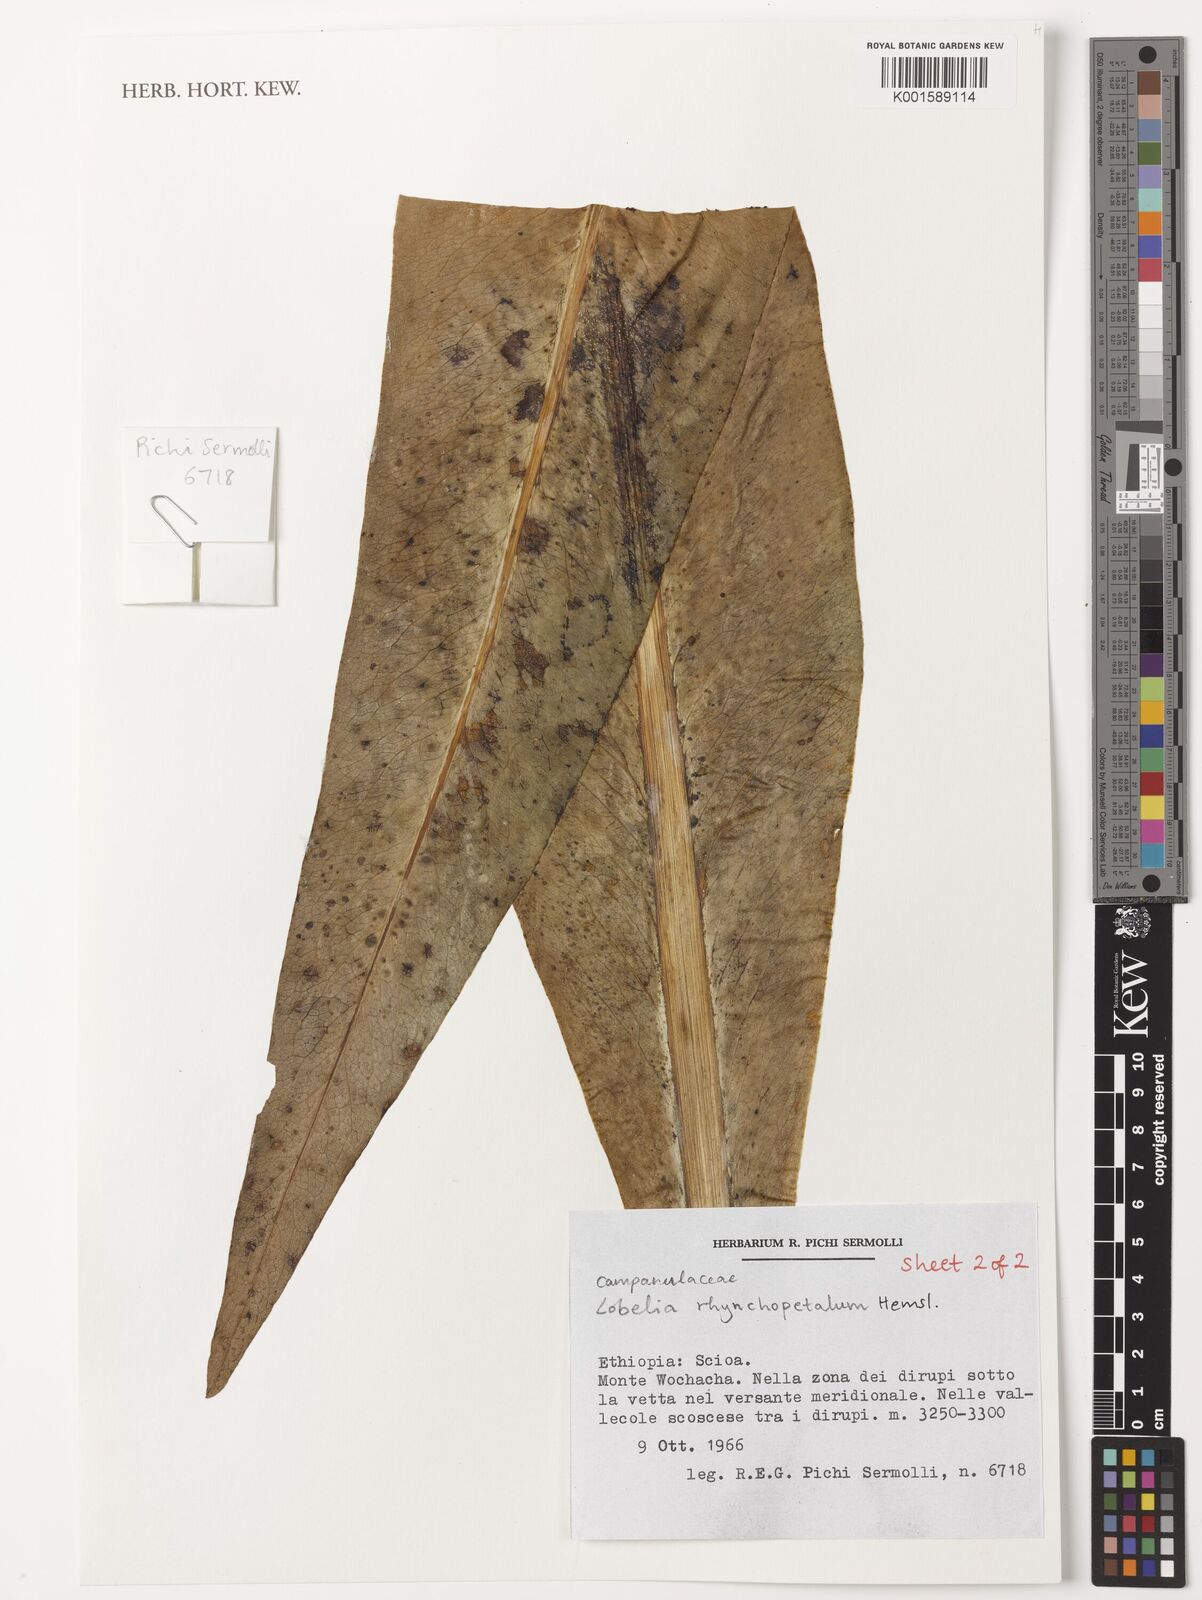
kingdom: Plantae
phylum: Tracheophyta
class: Magnoliopsida
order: Asterales
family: Campanulaceae
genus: Lobelia
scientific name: Lobelia rhynchopetalum
